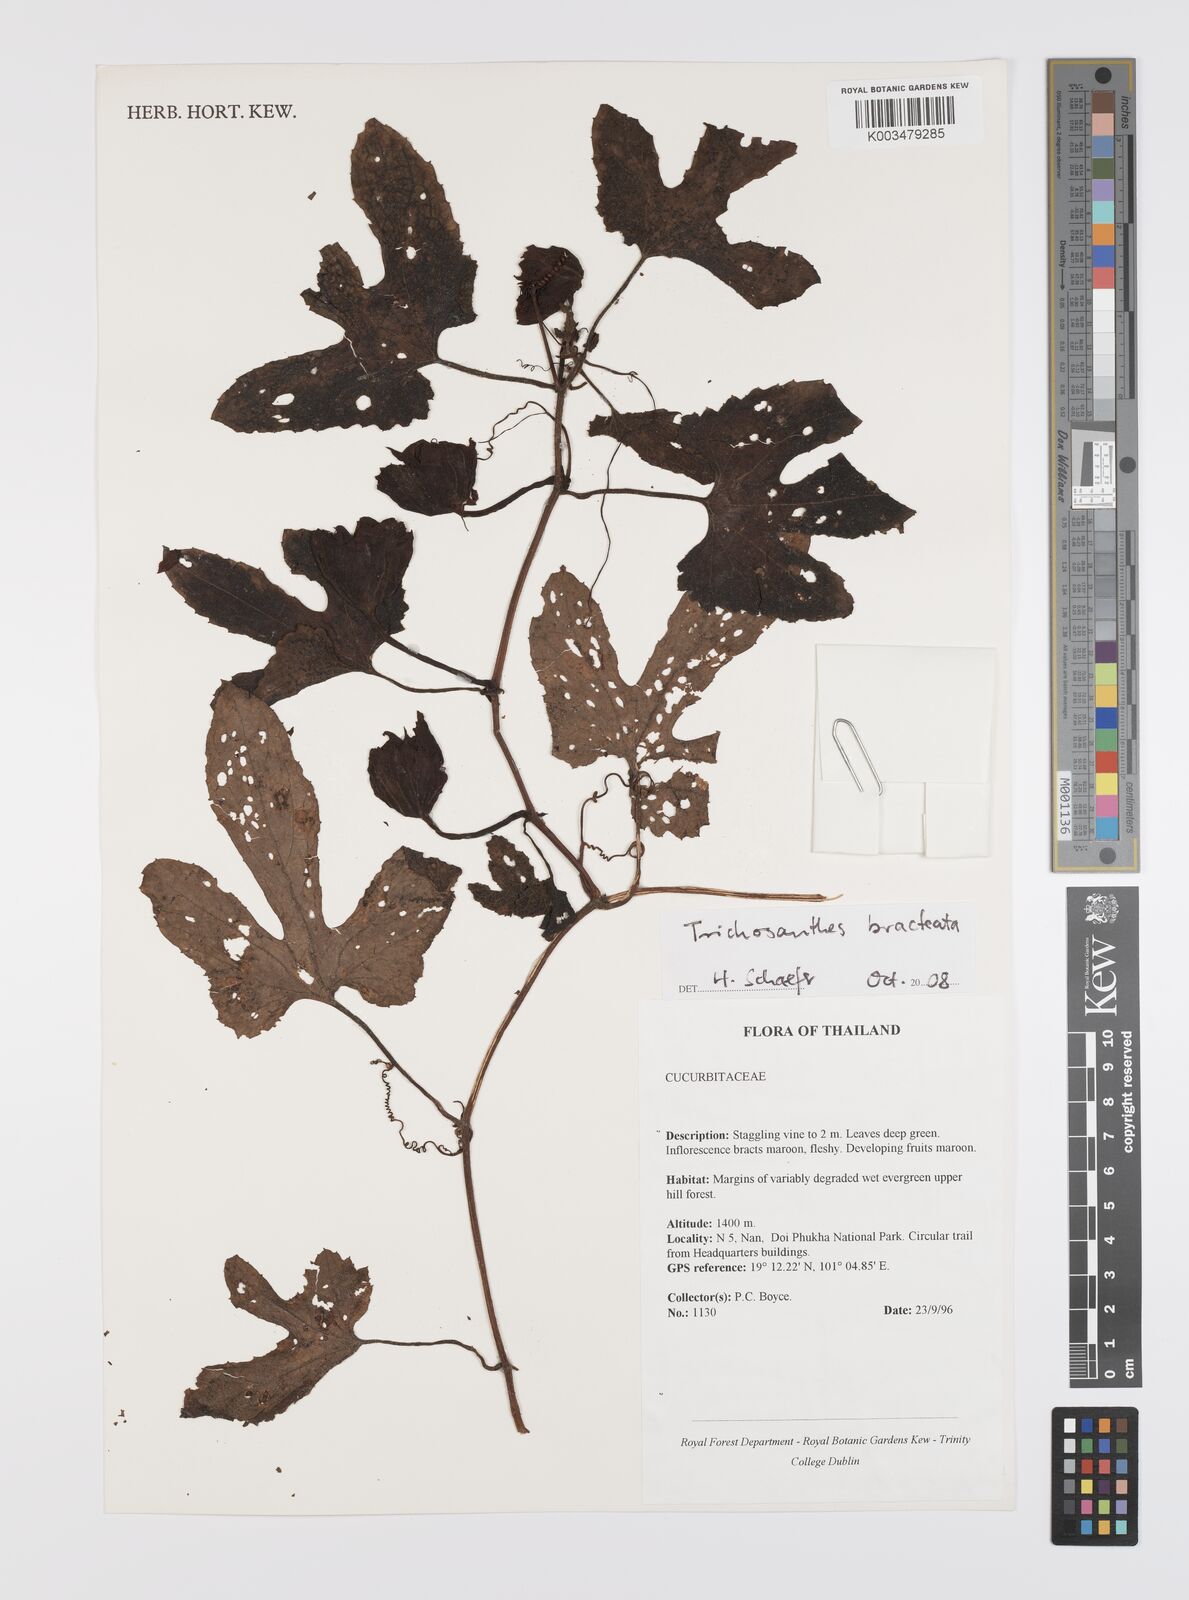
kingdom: Plantae
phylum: Tracheophyta
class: Magnoliopsida
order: Cucurbitales
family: Cucurbitaceae
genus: Trichosanthes
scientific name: Trichosanthes bracteata
